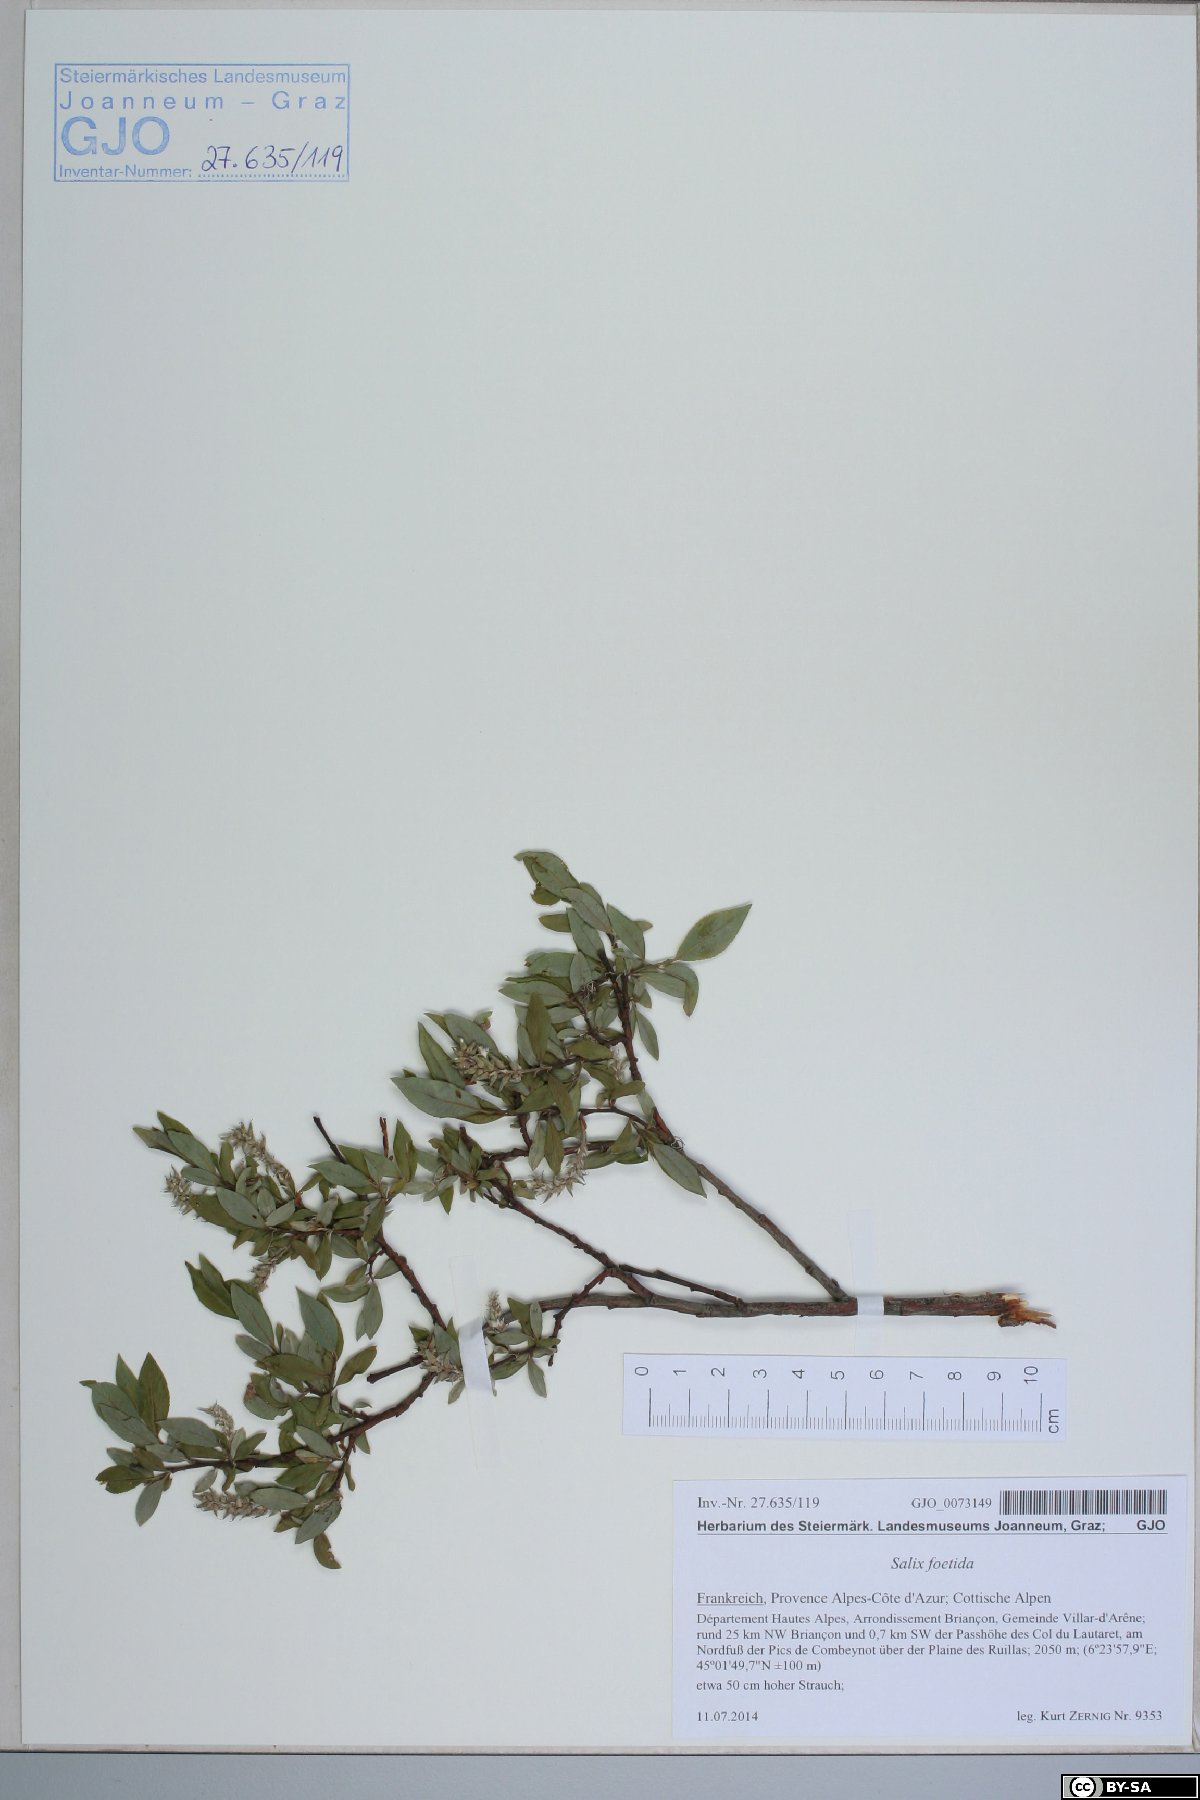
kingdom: Plantae
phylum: Tracheophyta
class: Magnoliopsida
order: Malpighiales
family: Salicaceae
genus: Salix
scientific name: Salix foetida
